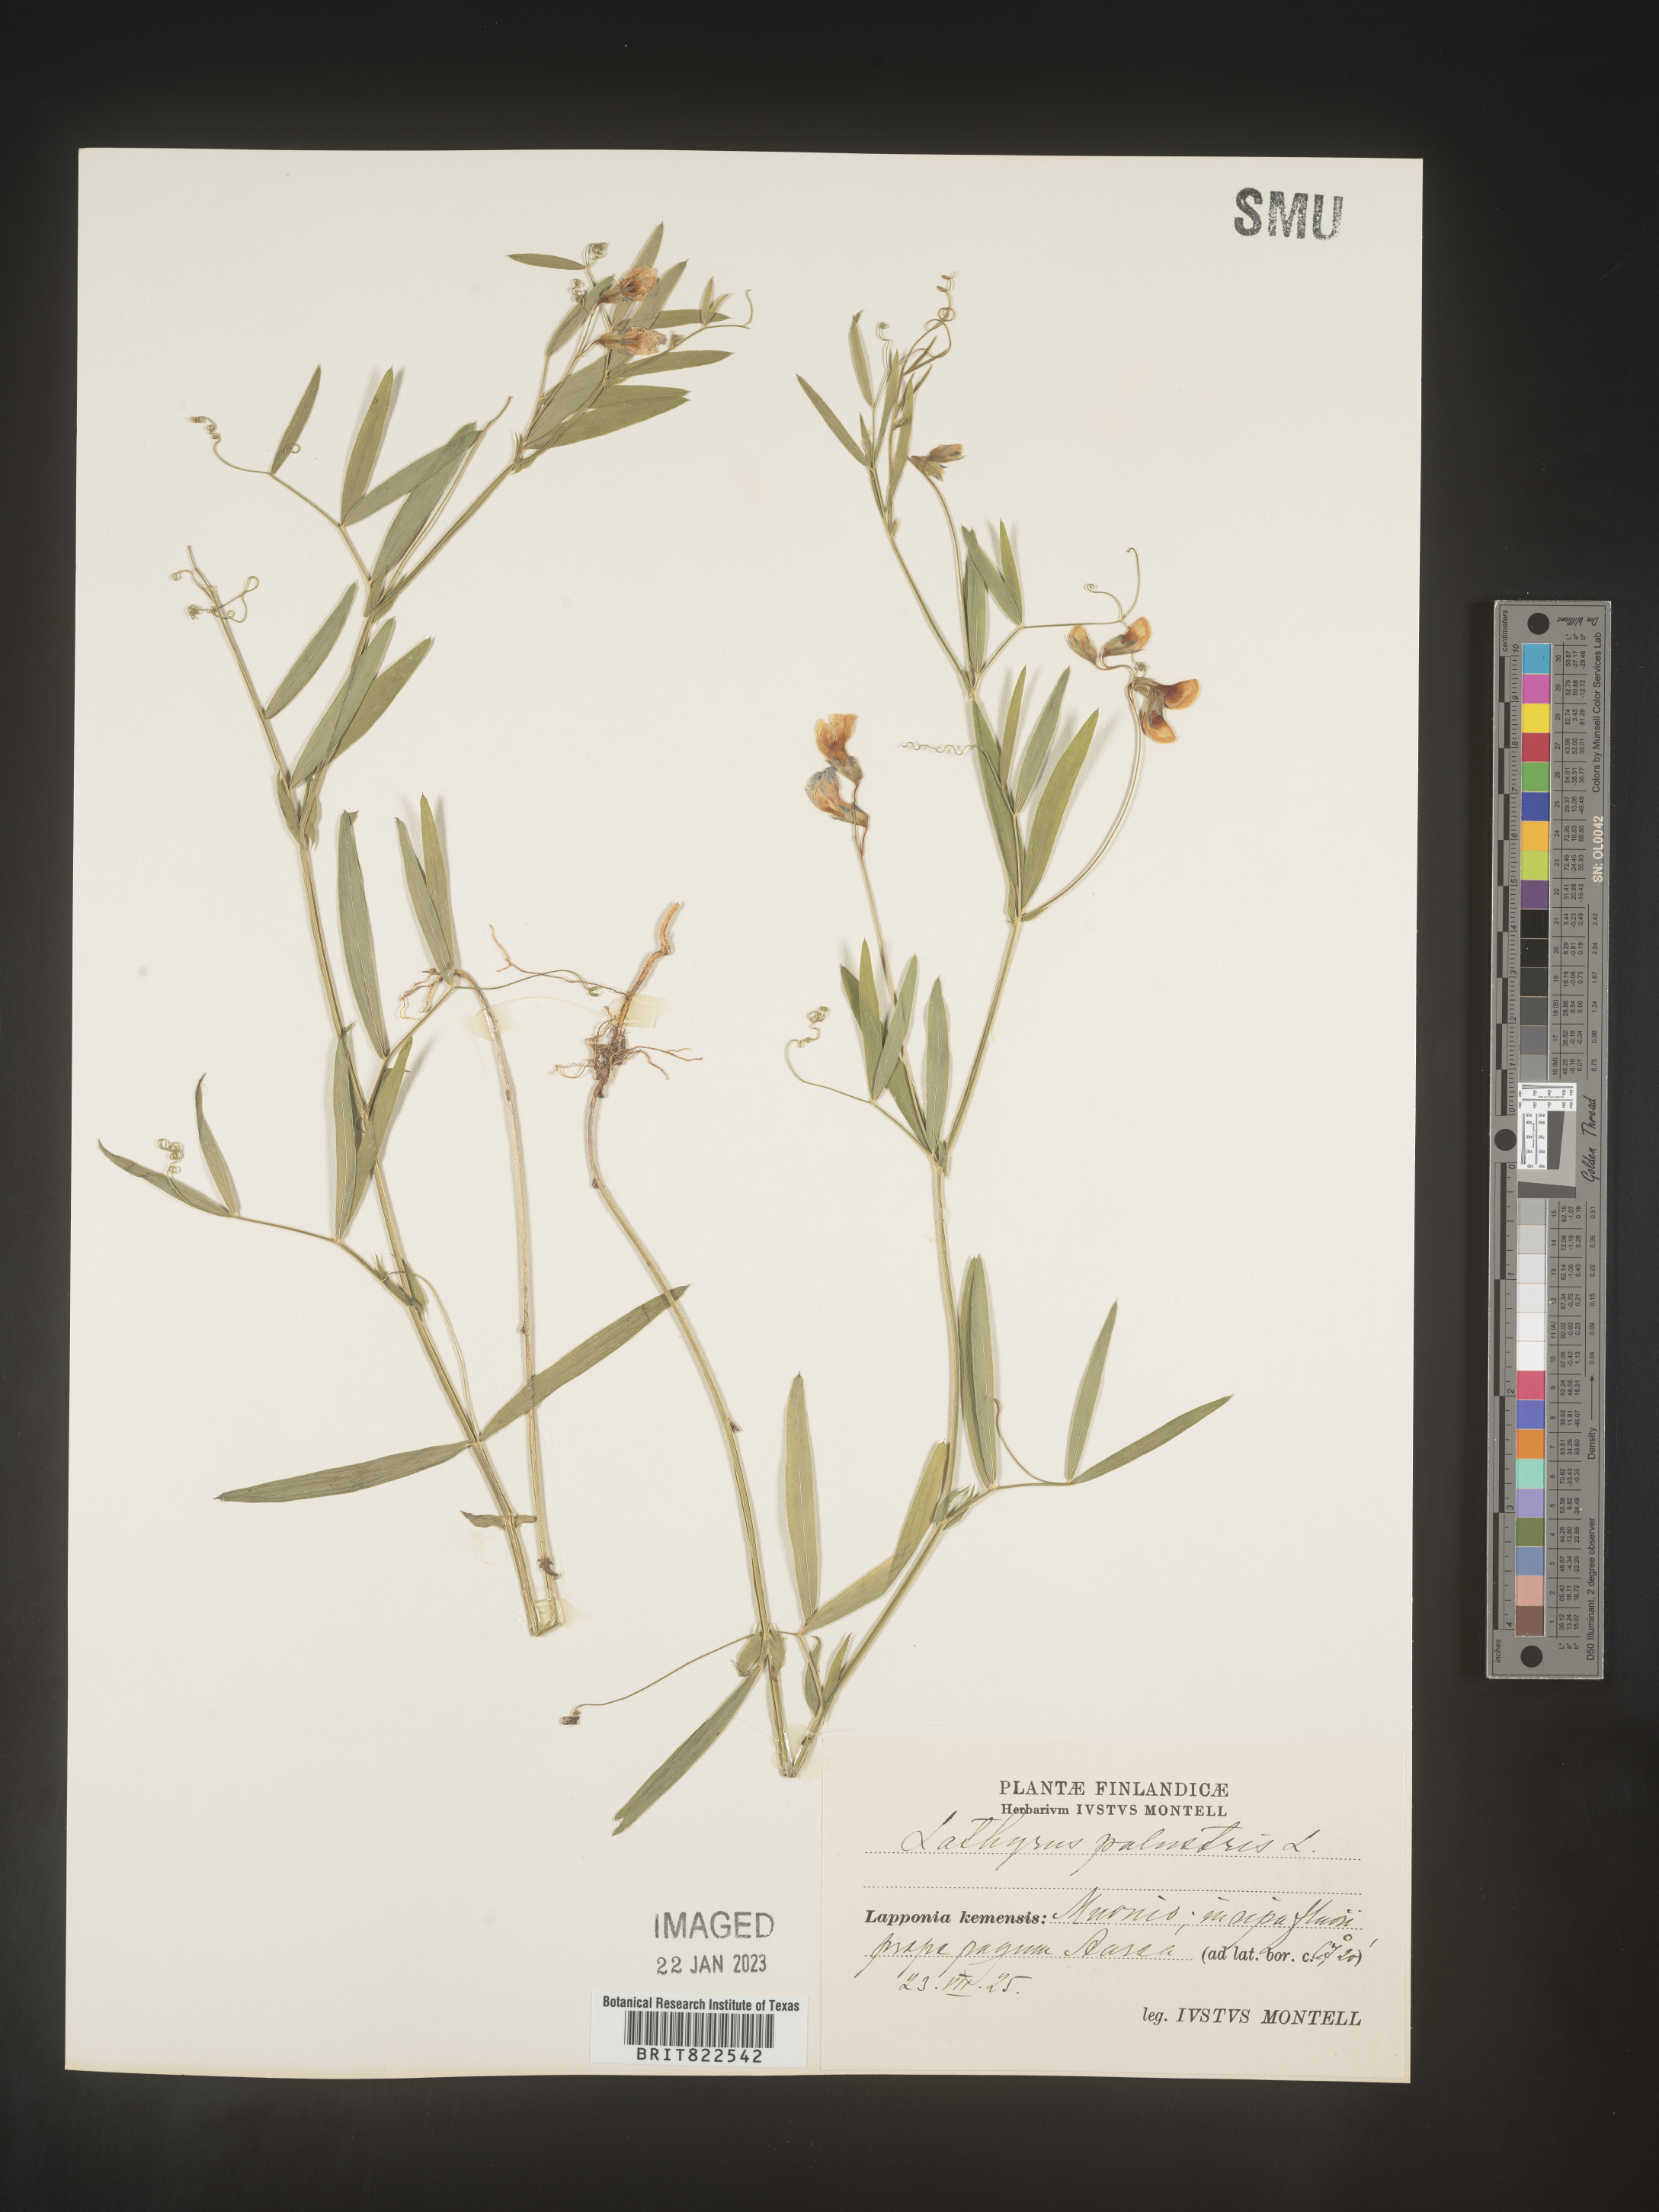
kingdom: Plantae
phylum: Tracheophyta
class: Magnoliopsida
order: Fabales
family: Fabaceae
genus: Lathyrus
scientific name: Lathyrus
